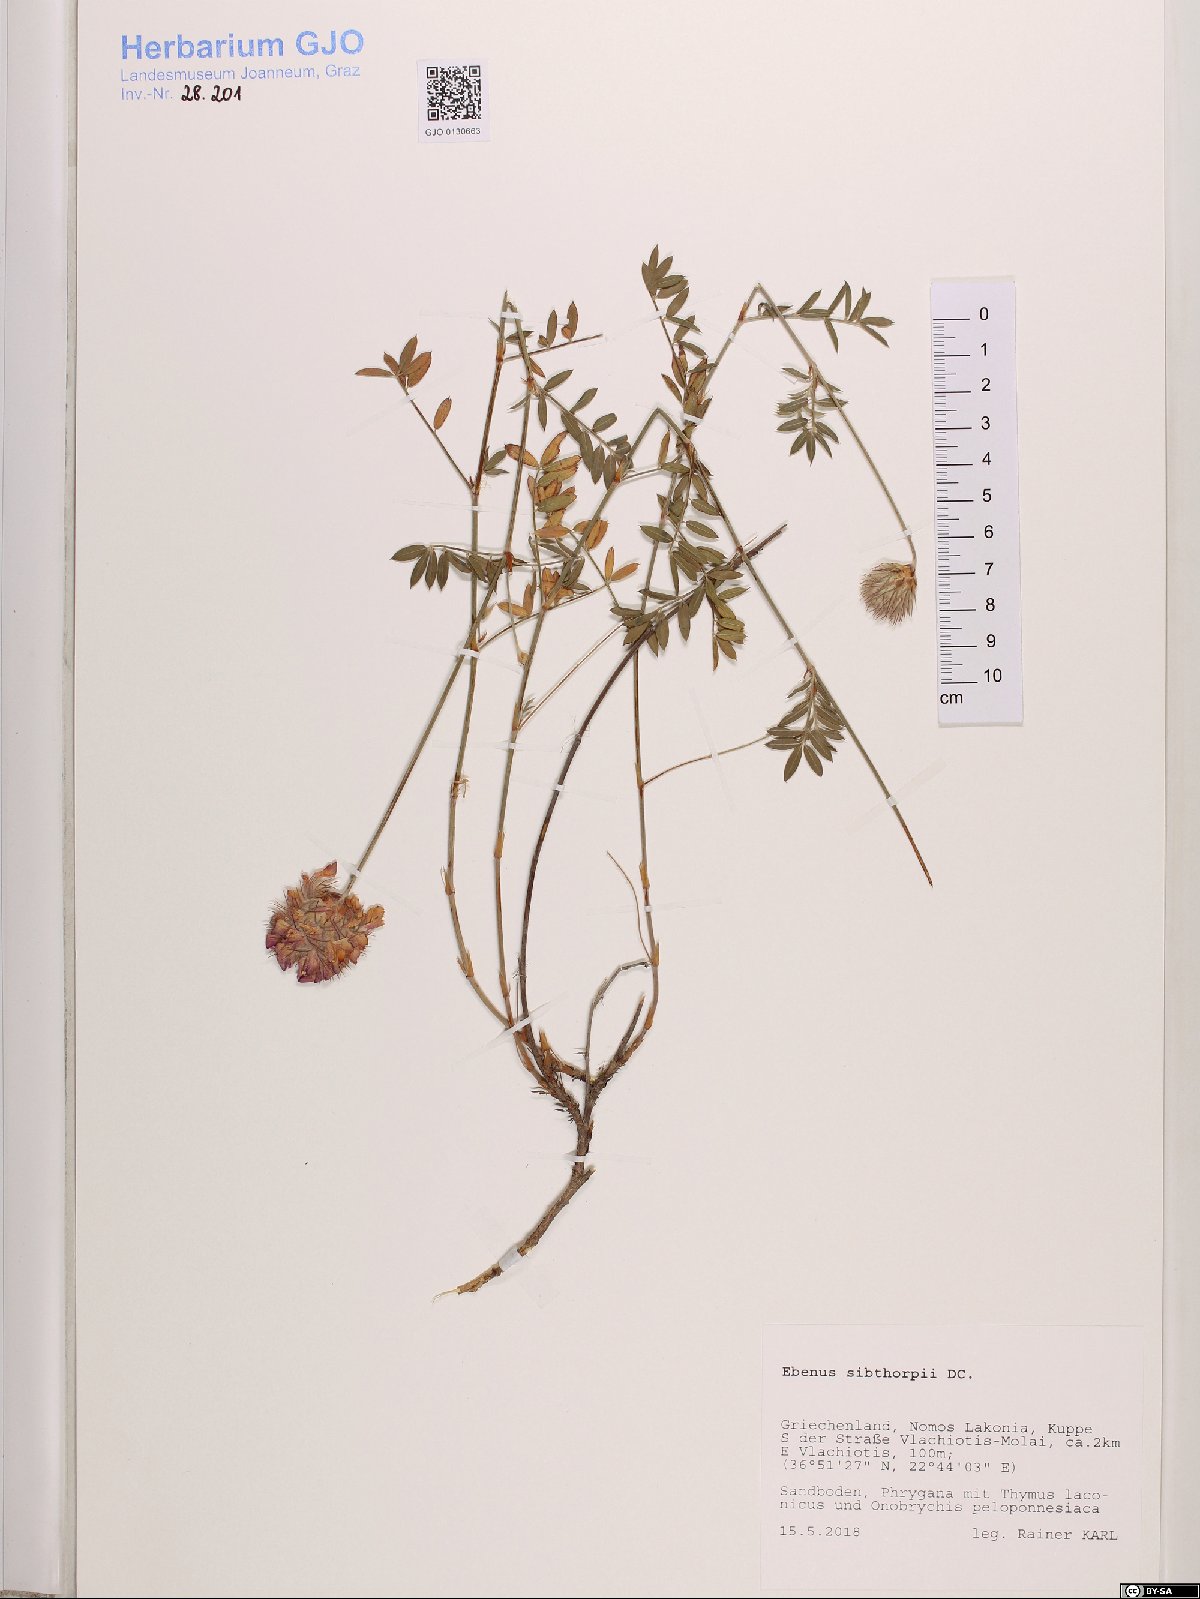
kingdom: Plantae
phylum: Tracheophyta
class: Magnoliopsida
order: Fabales
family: Fabaceae
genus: Ebenus
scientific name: Ebenus sibthorpii
